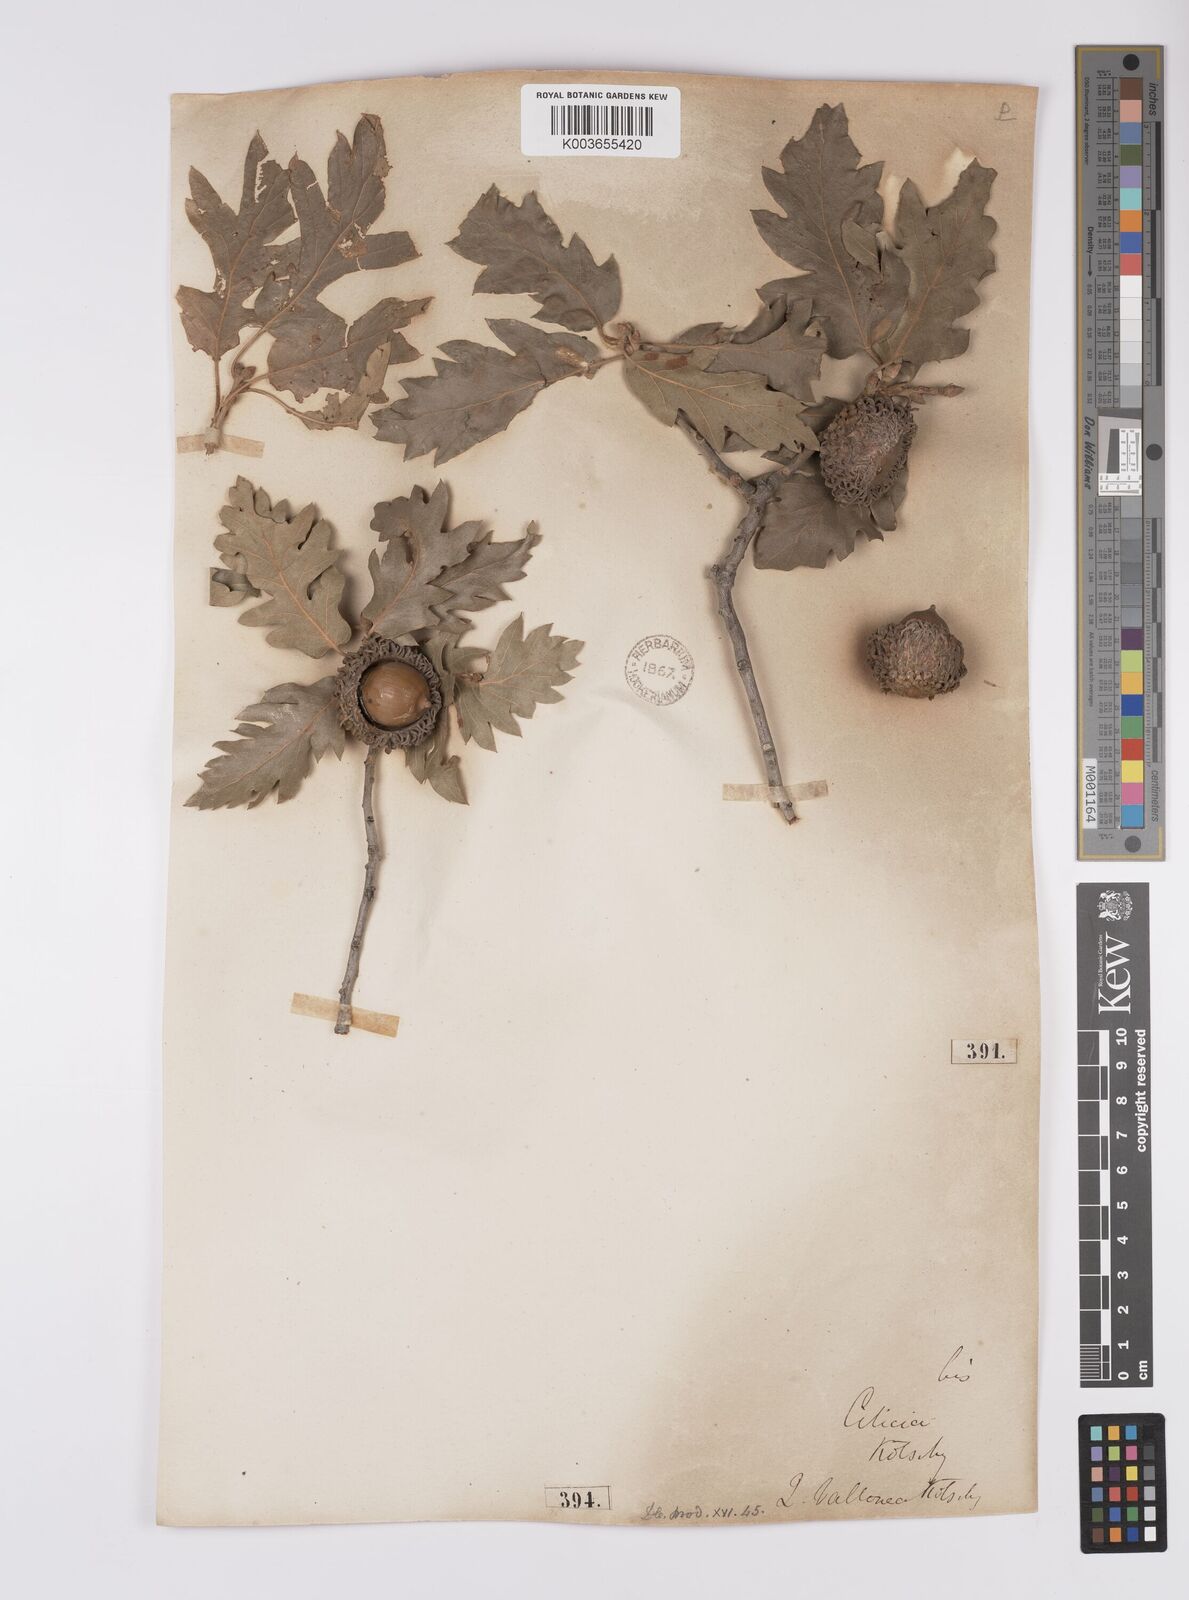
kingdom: Plantae
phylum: Tracheophyta
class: Magnoliopsida
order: Fagales
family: Fagaceae
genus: Quercus
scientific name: Quercus
